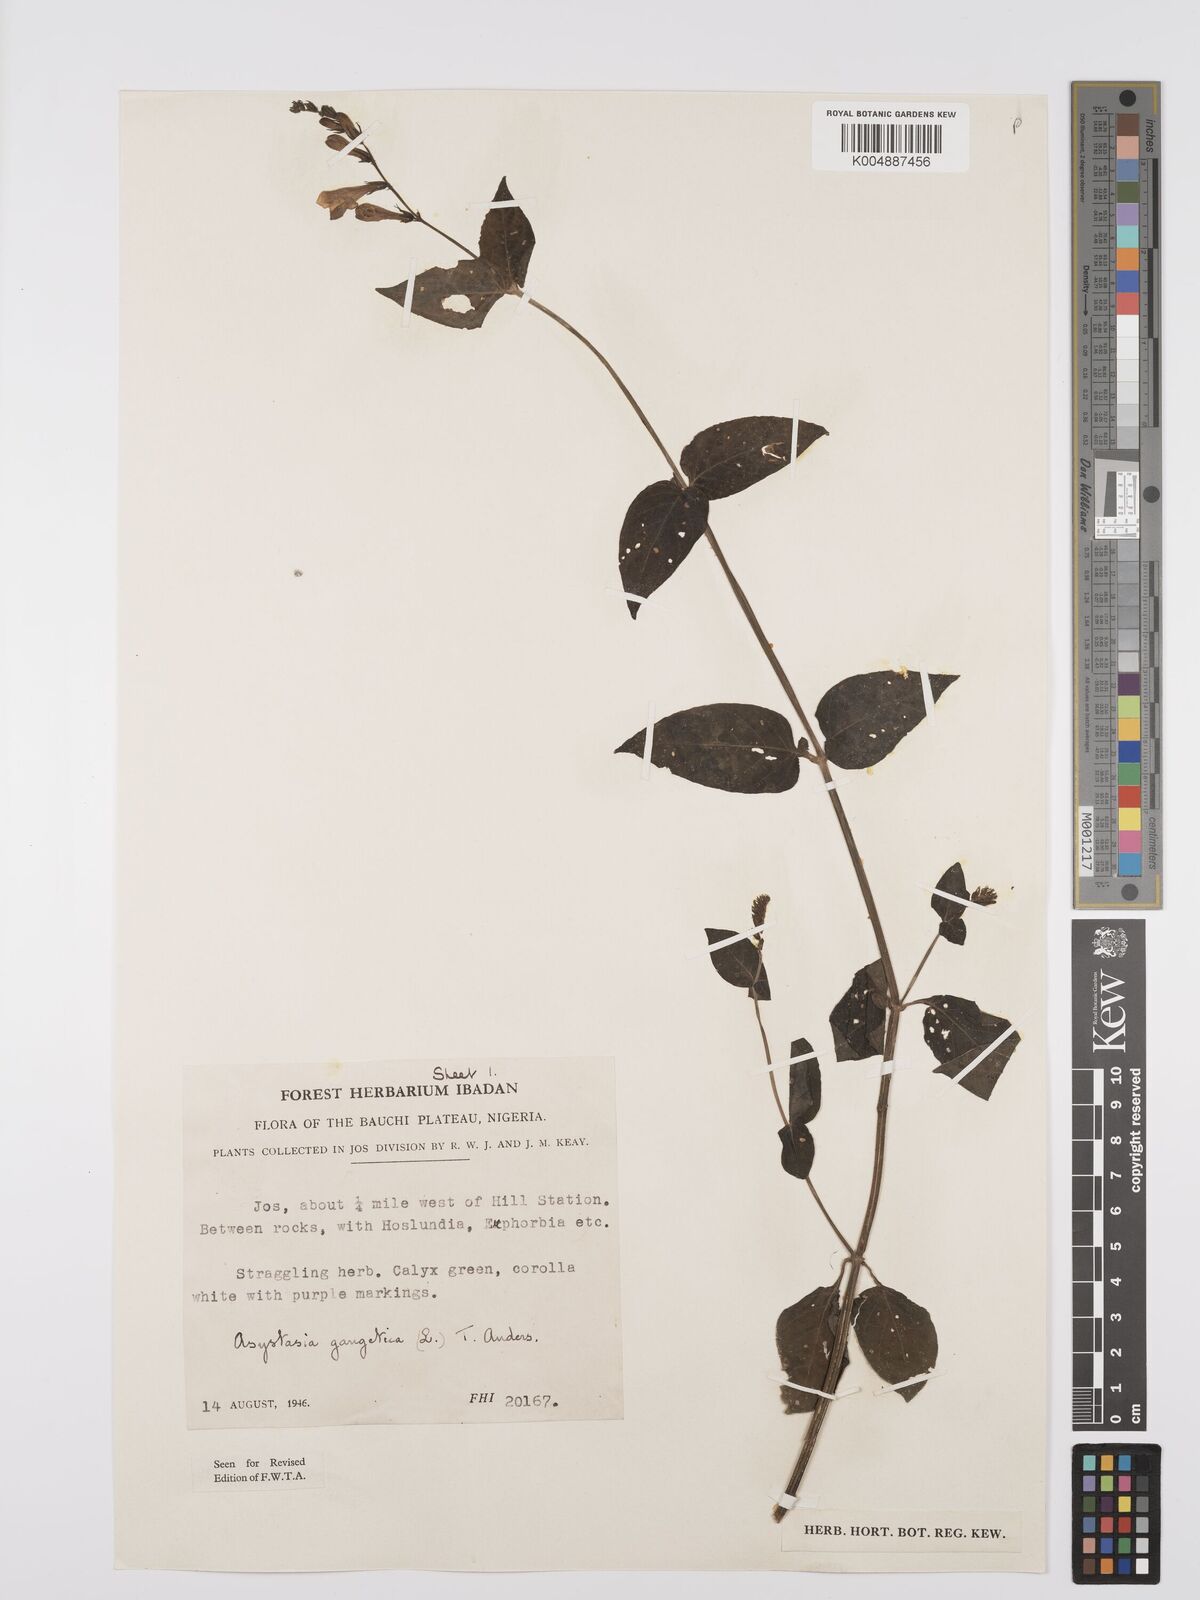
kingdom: Plantae
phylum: Tracheophyta
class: Magnoliopsida
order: Lamiales
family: Acanthaceae
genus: Asystasia
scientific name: Asystasia intrusa
